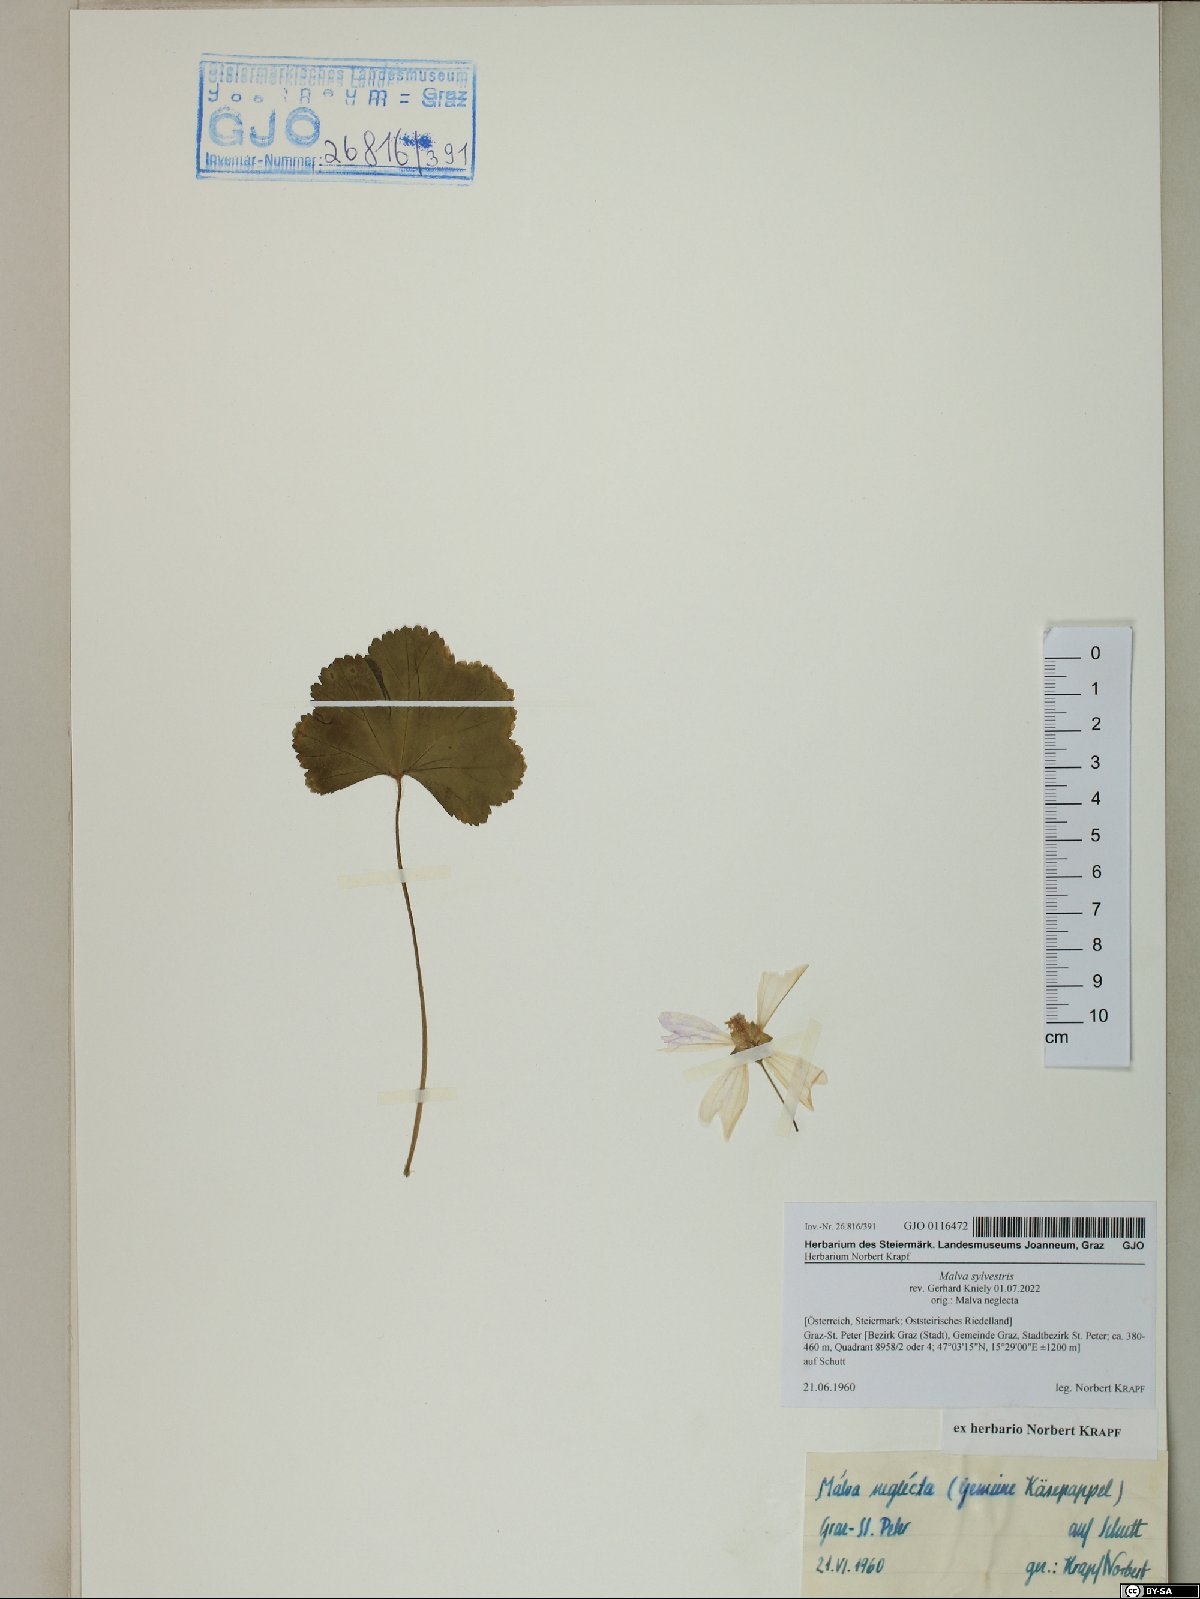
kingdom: Plantae
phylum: Tracheophyta
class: Magnoliopsida
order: Malvales
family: Malvaceae
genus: Malva
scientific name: Malva sylvestris
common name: Common mallow
